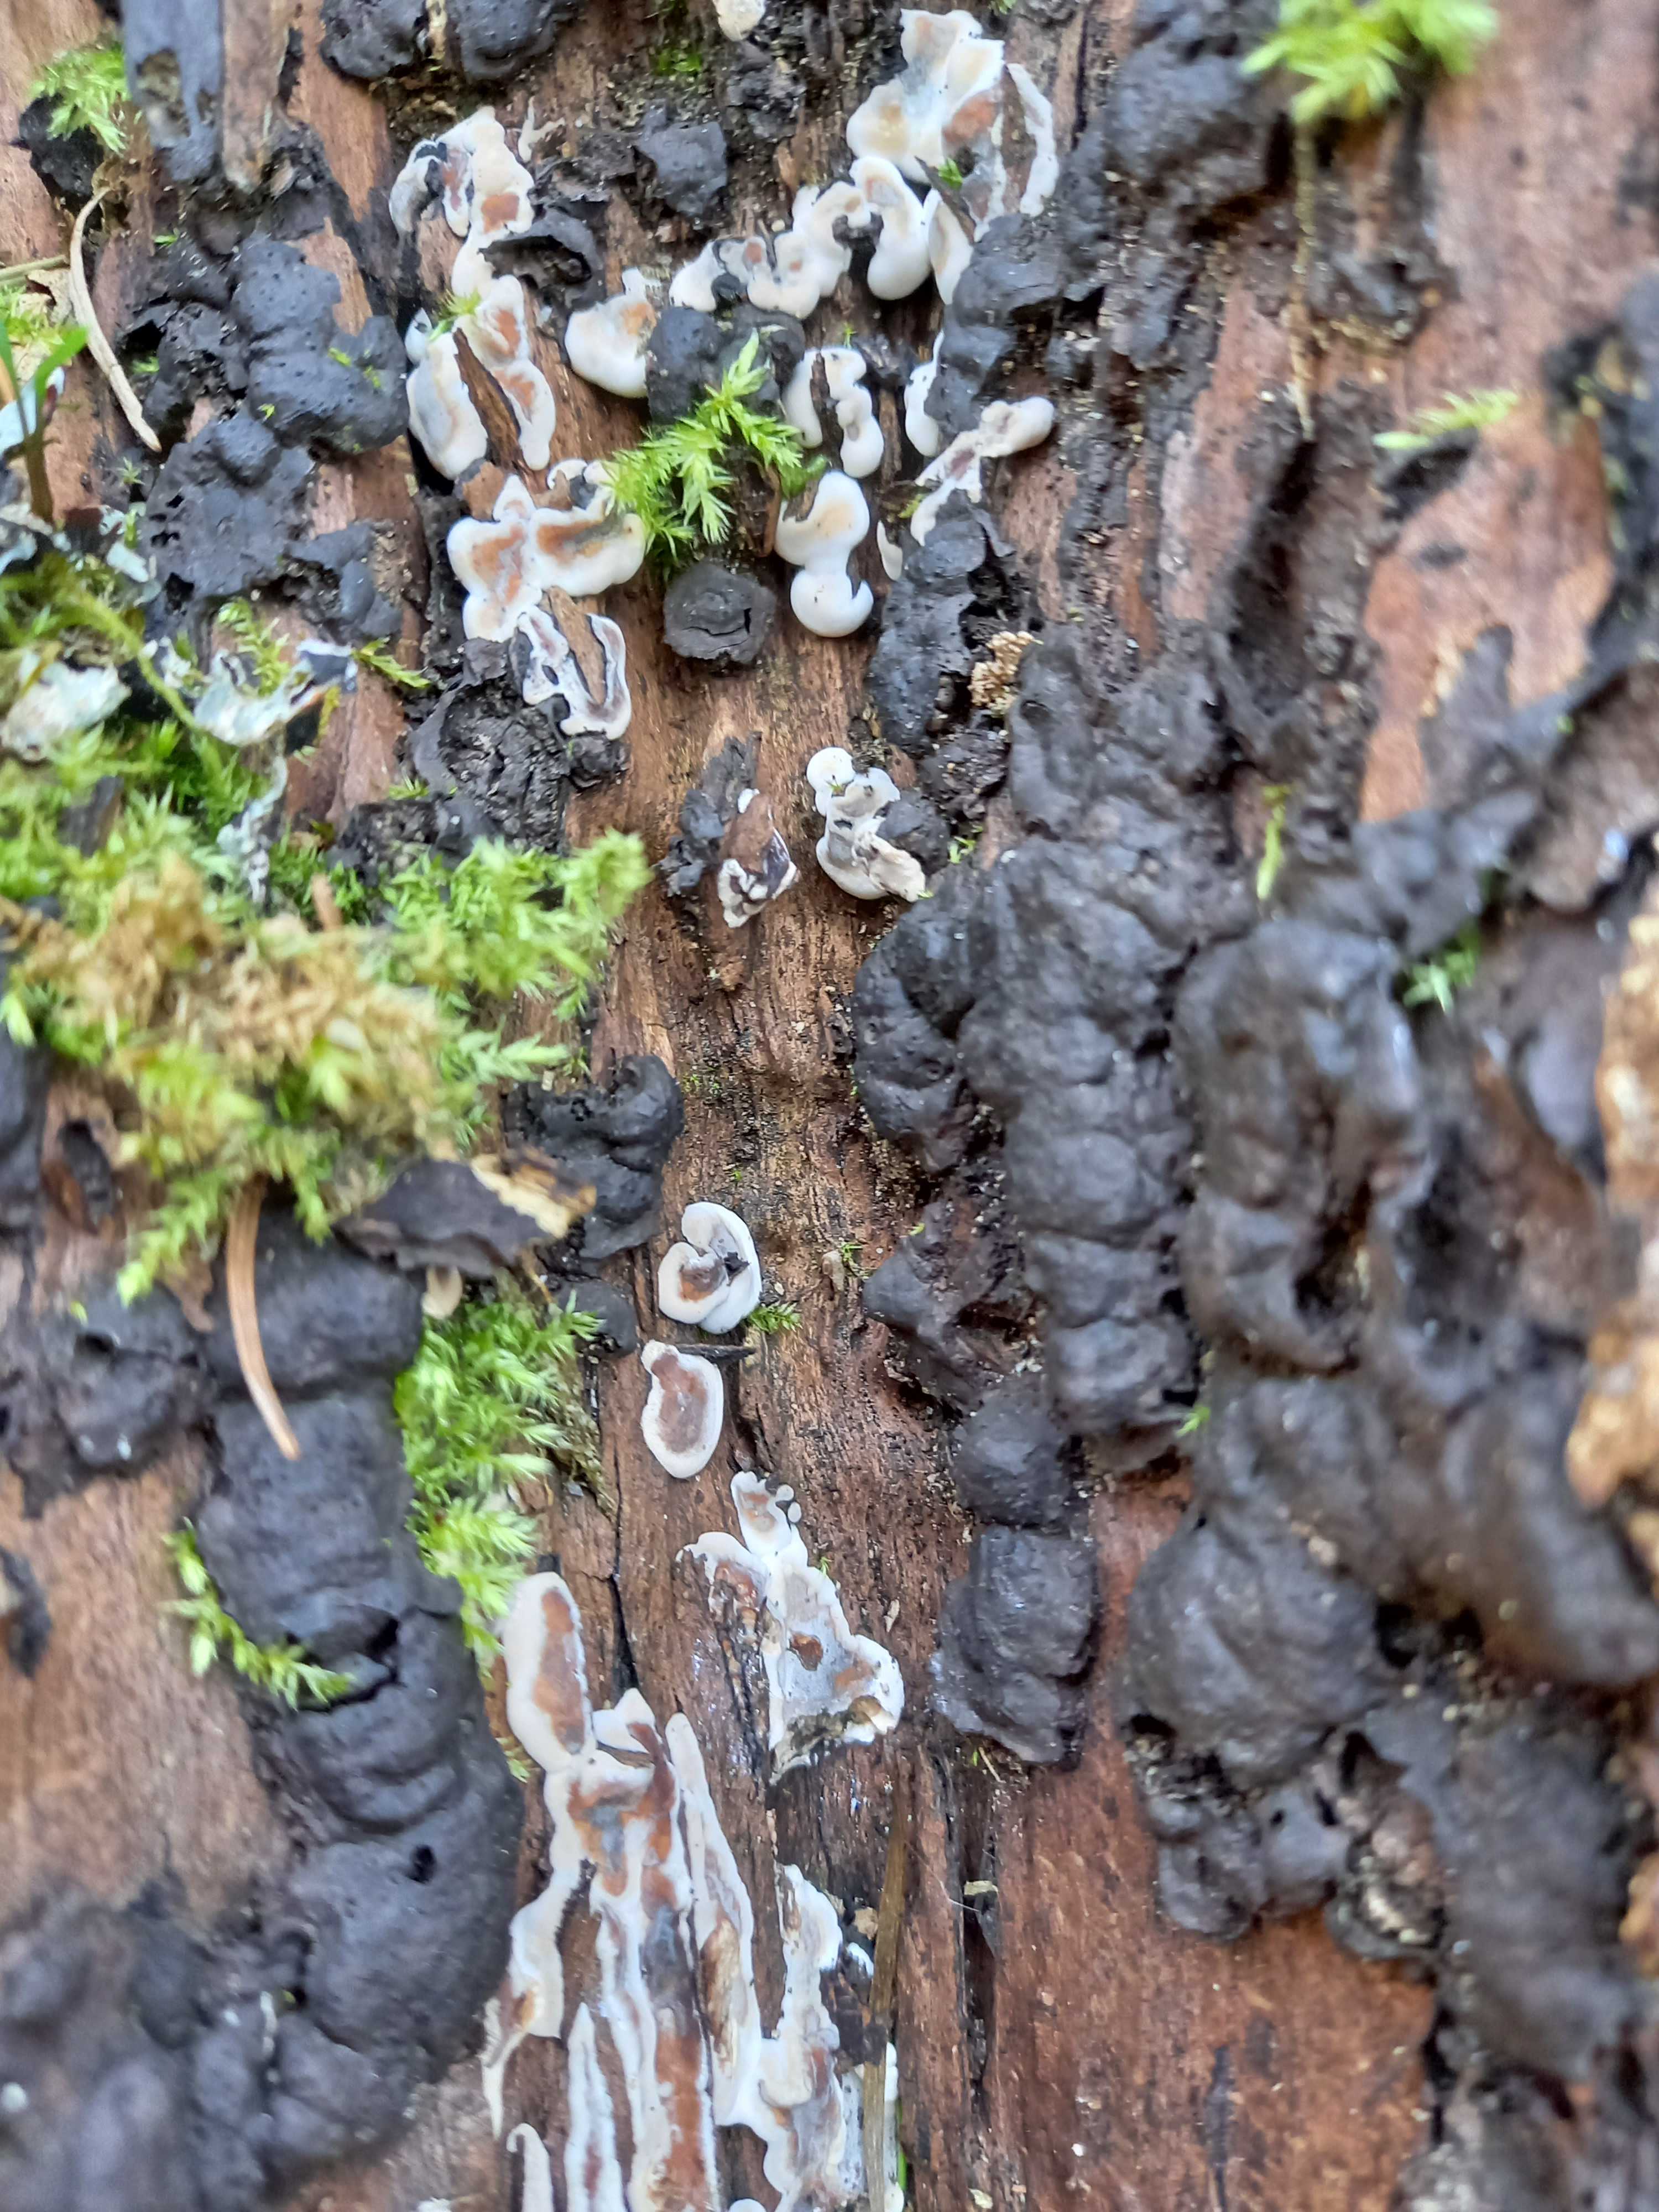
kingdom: Fungi
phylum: Ascomycota
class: Sordariomycetes
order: Xylariales
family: Xylariaceae
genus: Kretzschmaria
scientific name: Kretzschmaria deusta
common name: stor kulsvamp
